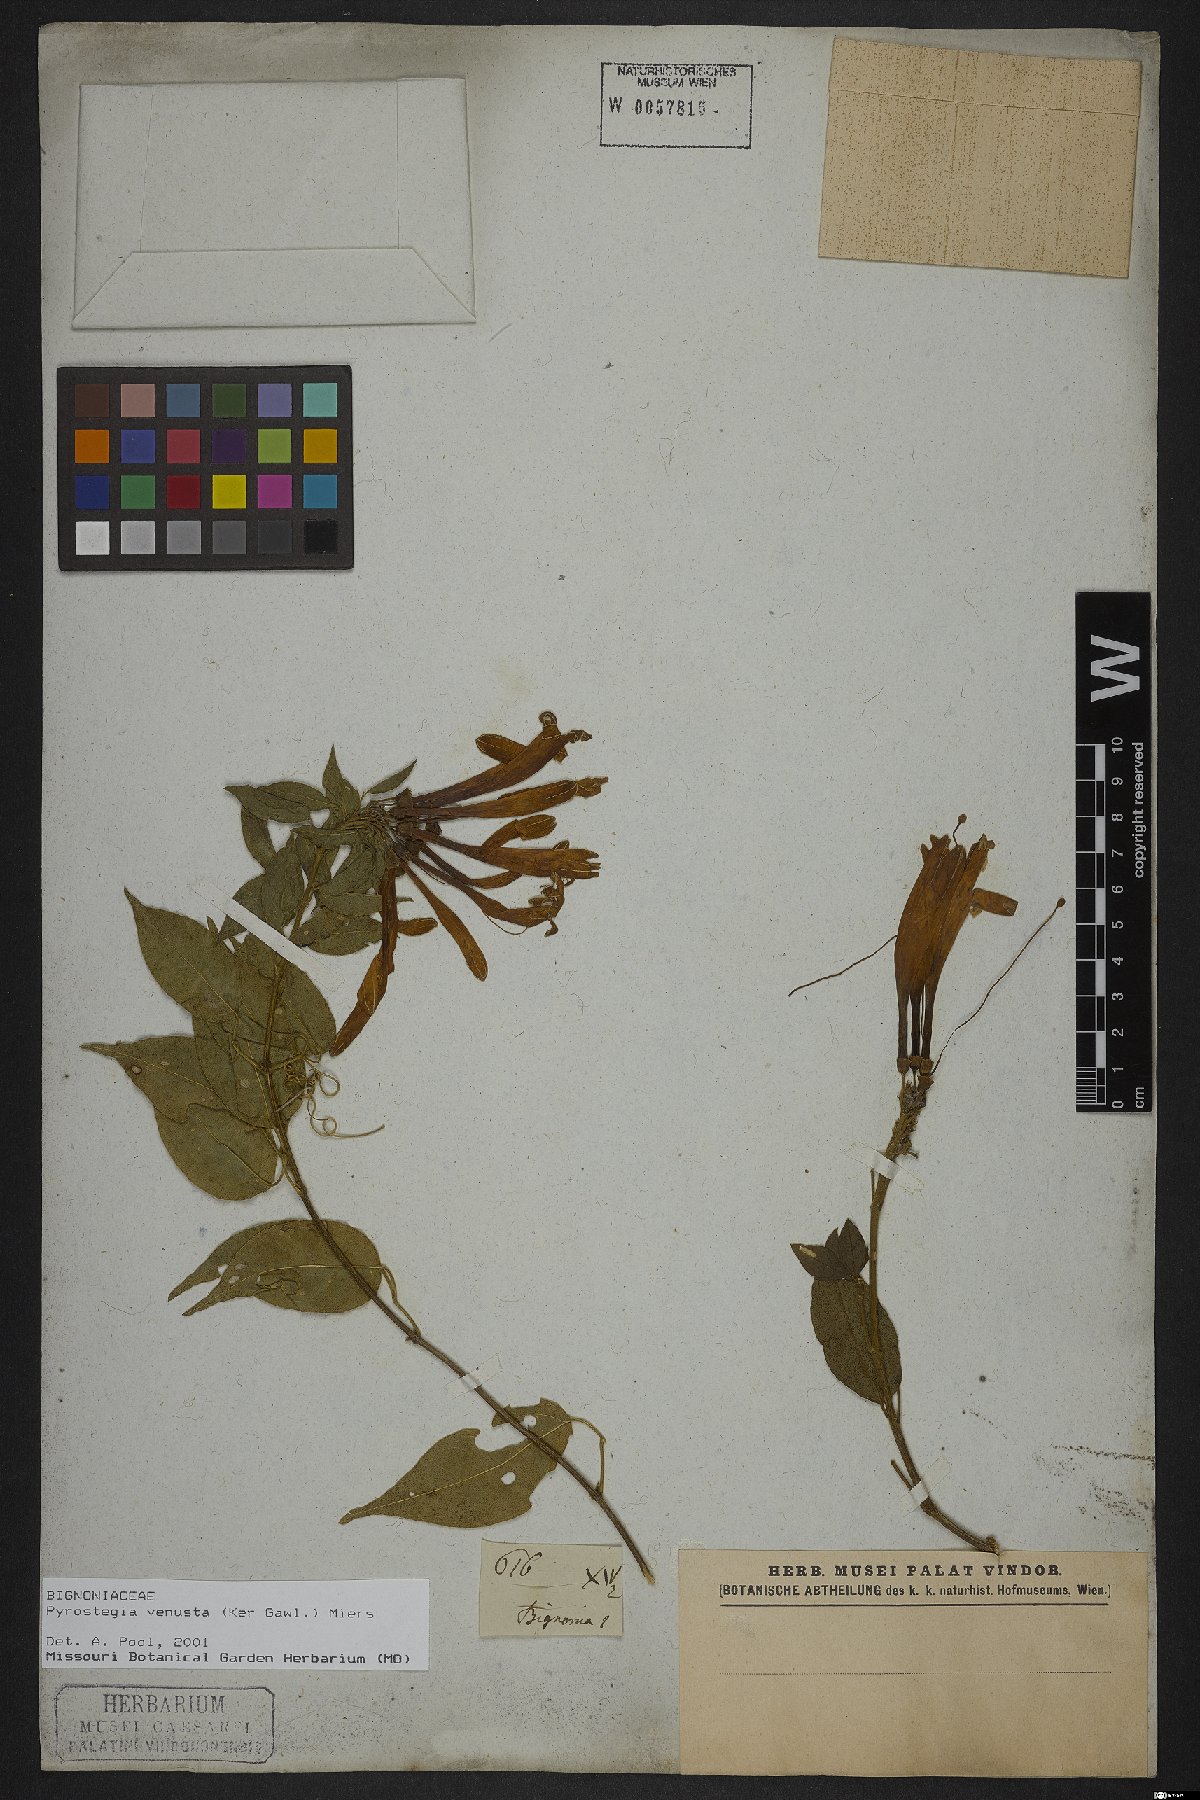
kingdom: Plantae
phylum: Tracheophyta
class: Magnoliopsida
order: Lamiales
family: Bignoniaceae
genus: Pyrostegia
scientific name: Pyrostegia venusta
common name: Flamevine
